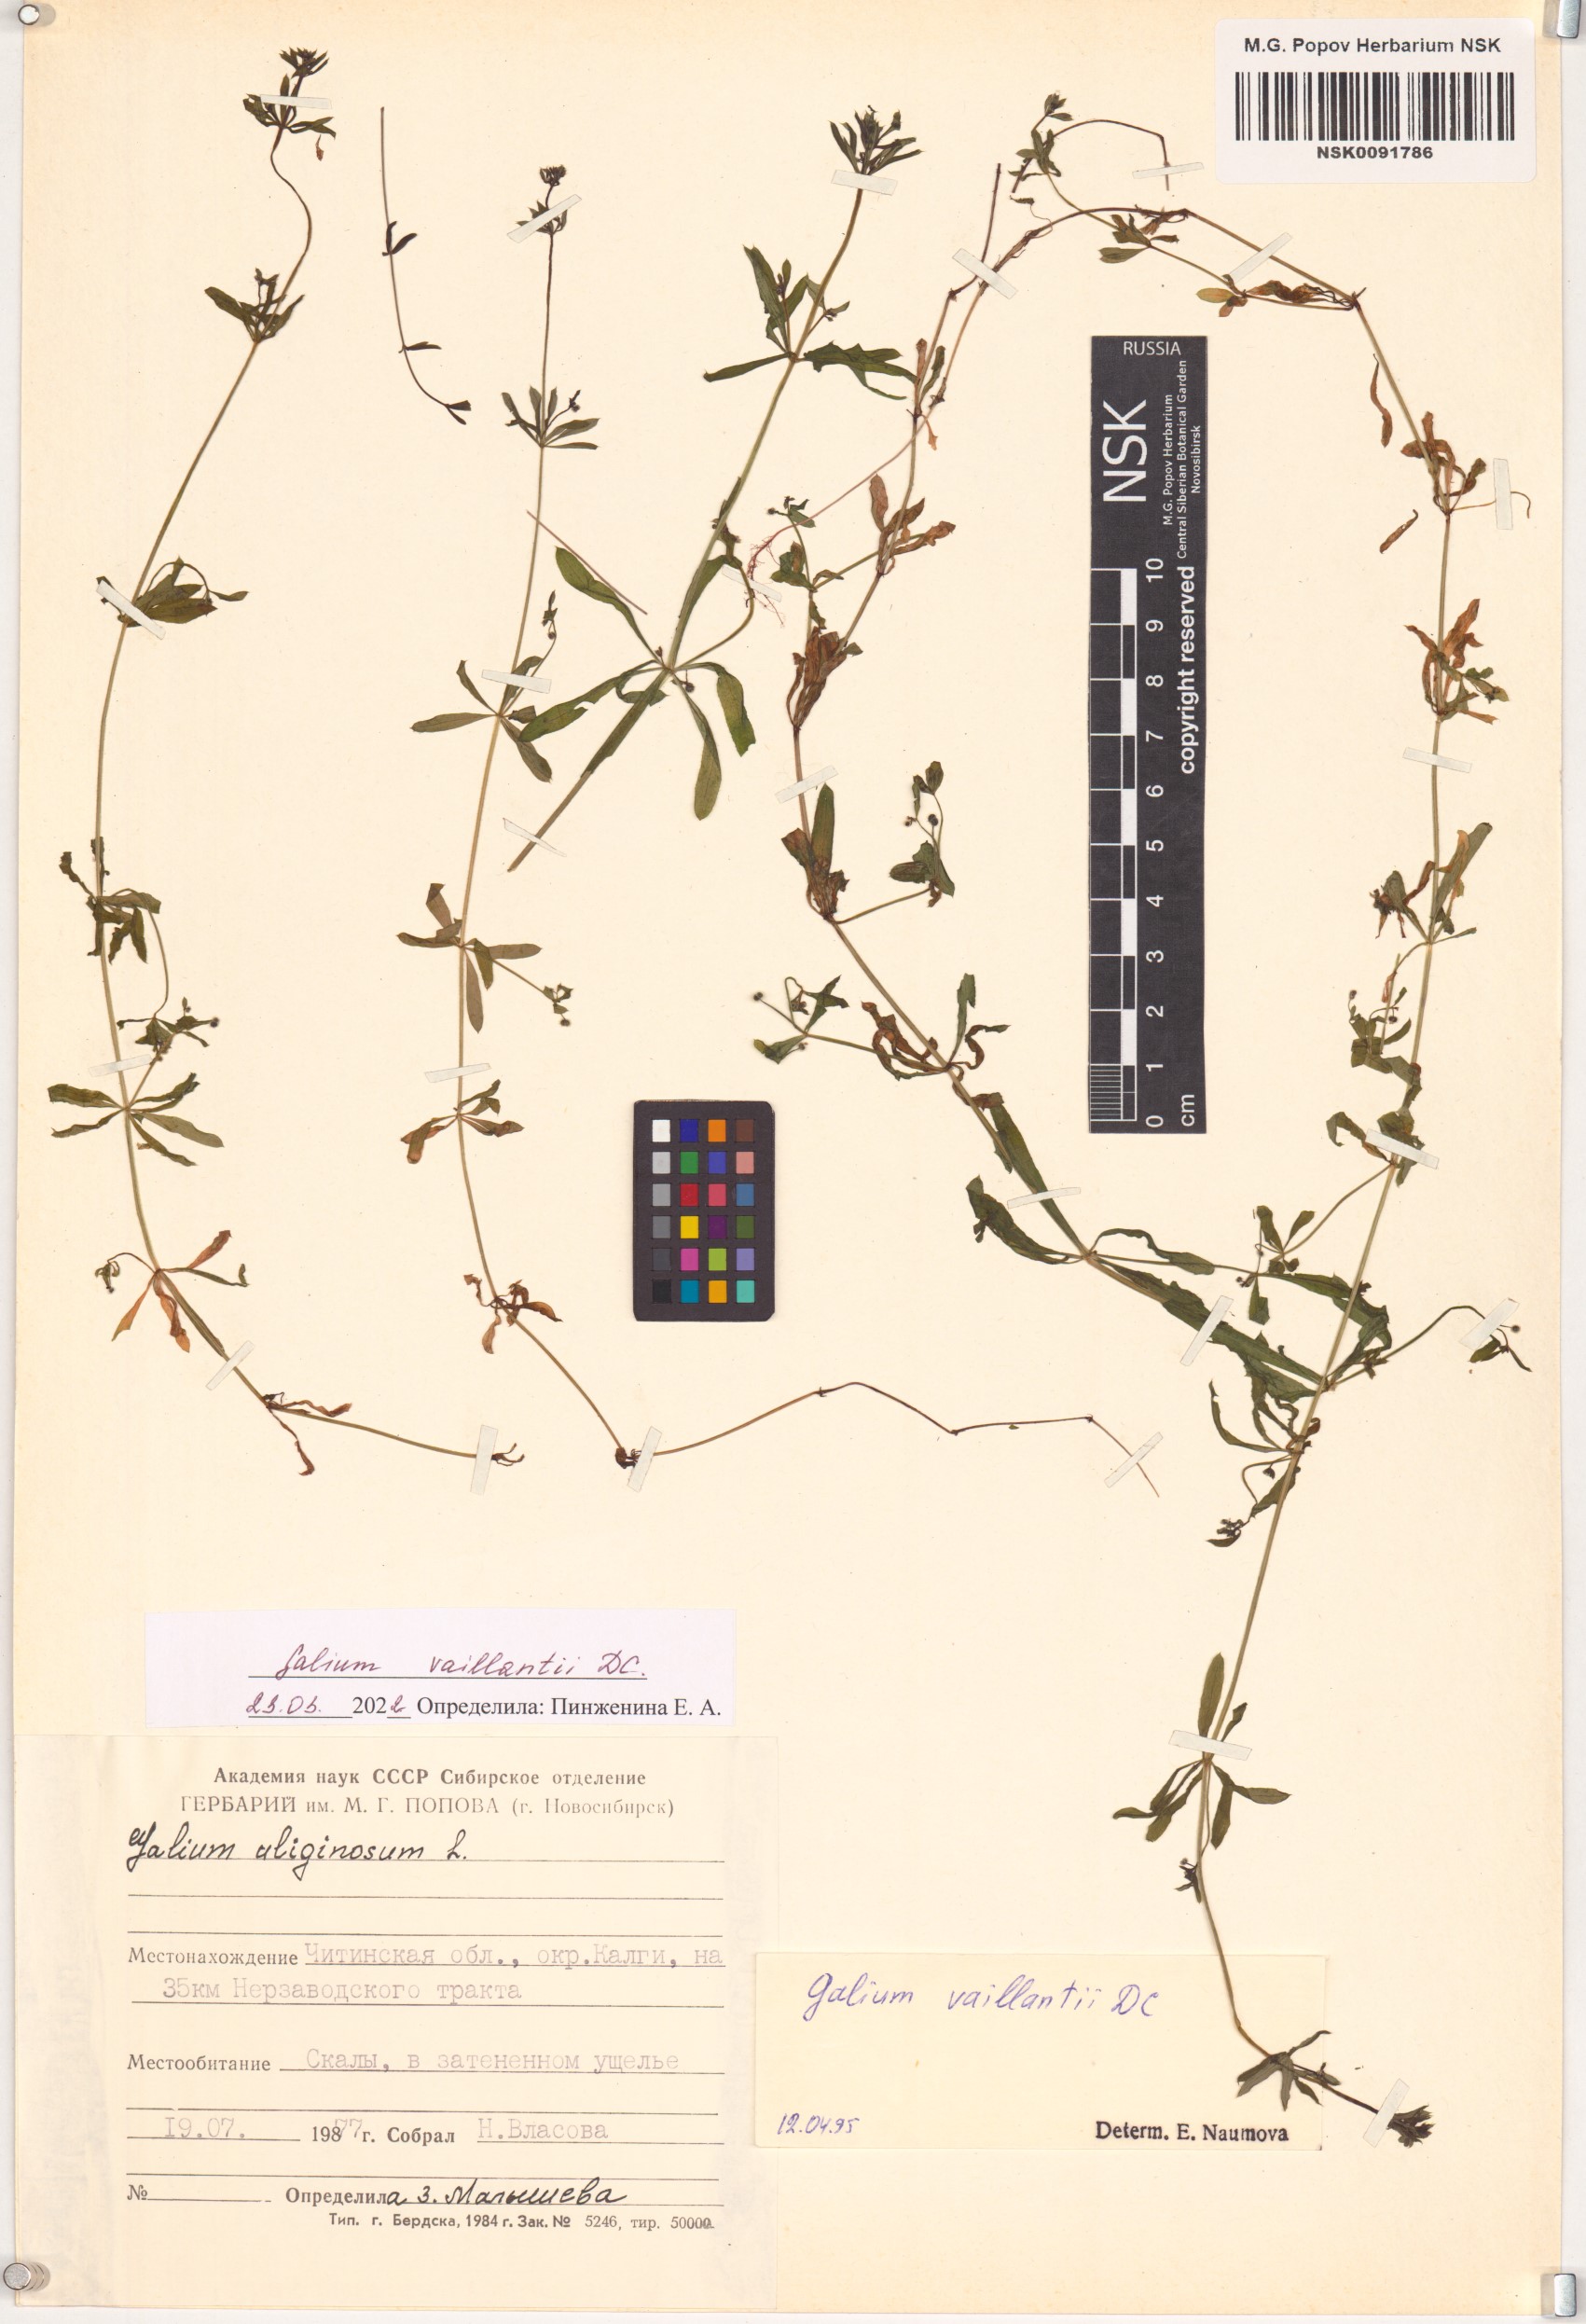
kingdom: Plantae
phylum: Tracheophyta
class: Magnoliopsida
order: Gentianales
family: Rubiaceae
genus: Galium
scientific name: Galium spurium
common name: False cleavers
